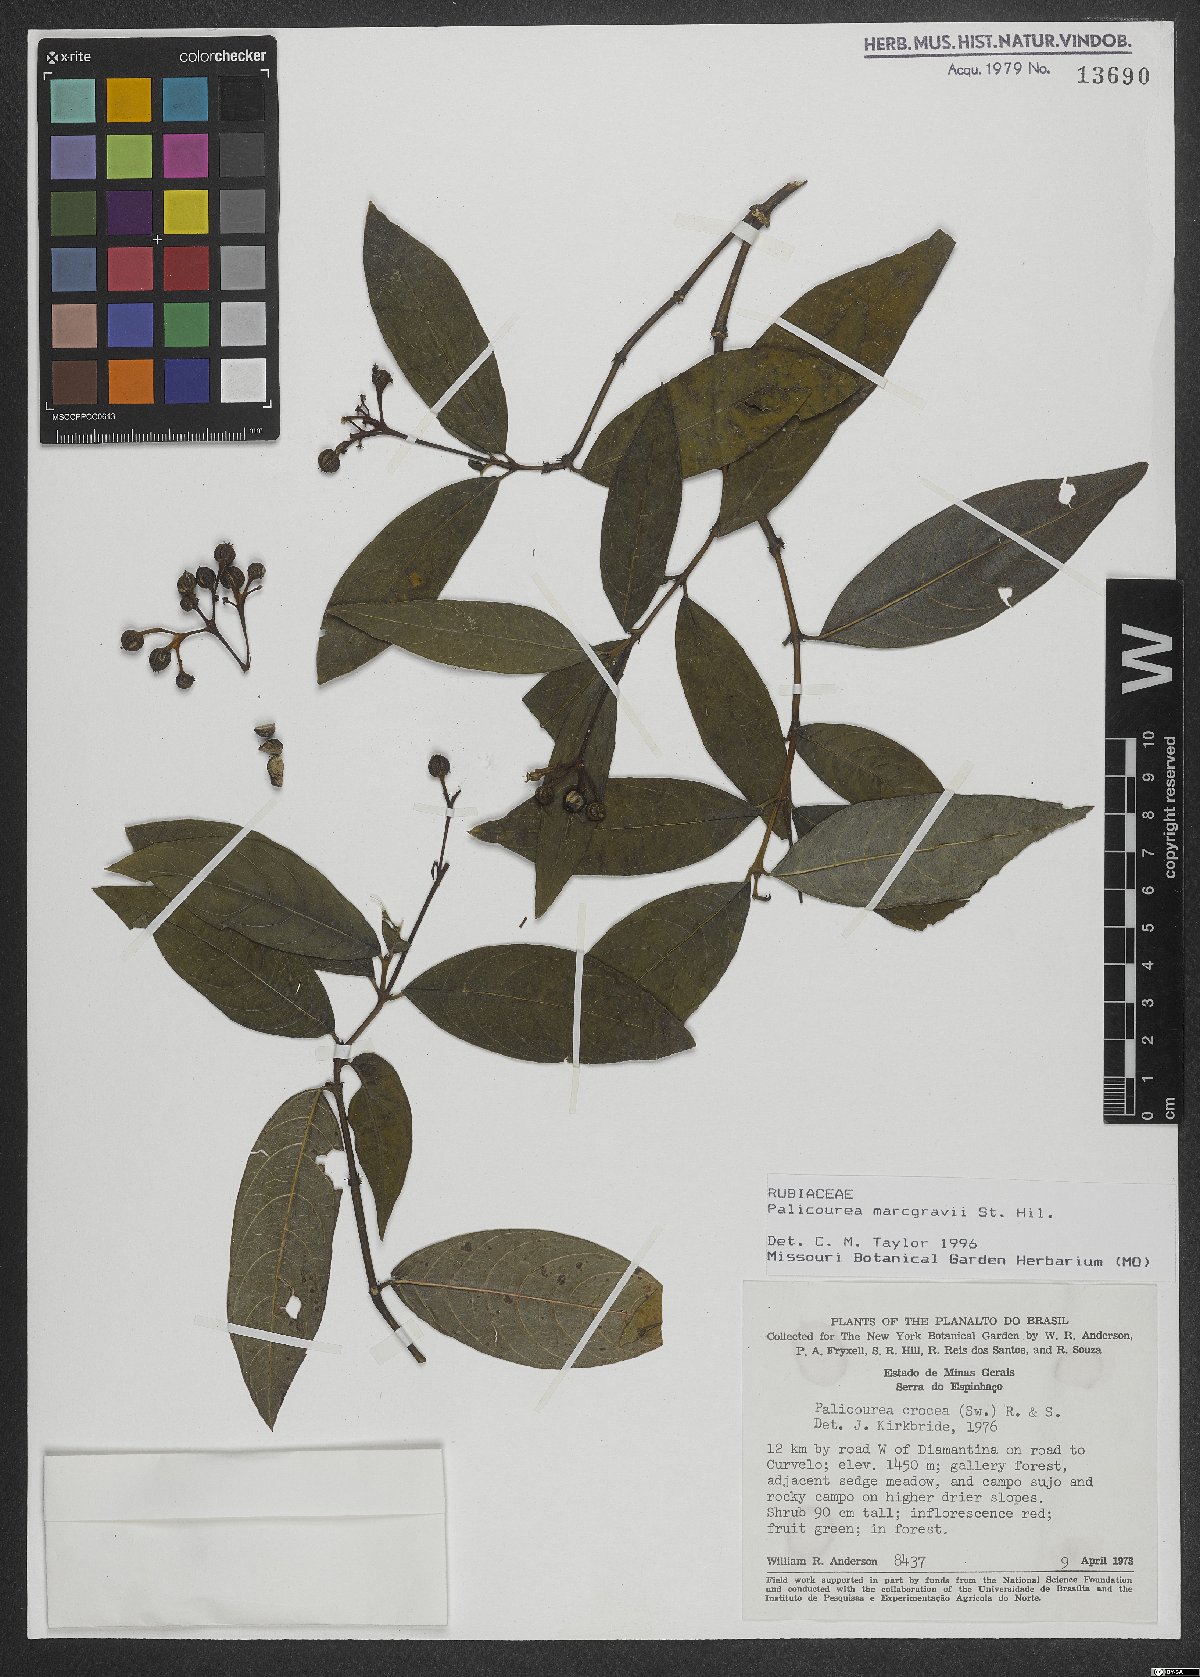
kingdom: Plantae
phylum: Tracheophyta
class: Magnoliopsida
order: Gentianales
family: Rubiaceae
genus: Palicourea
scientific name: Palicourea marcgravii
